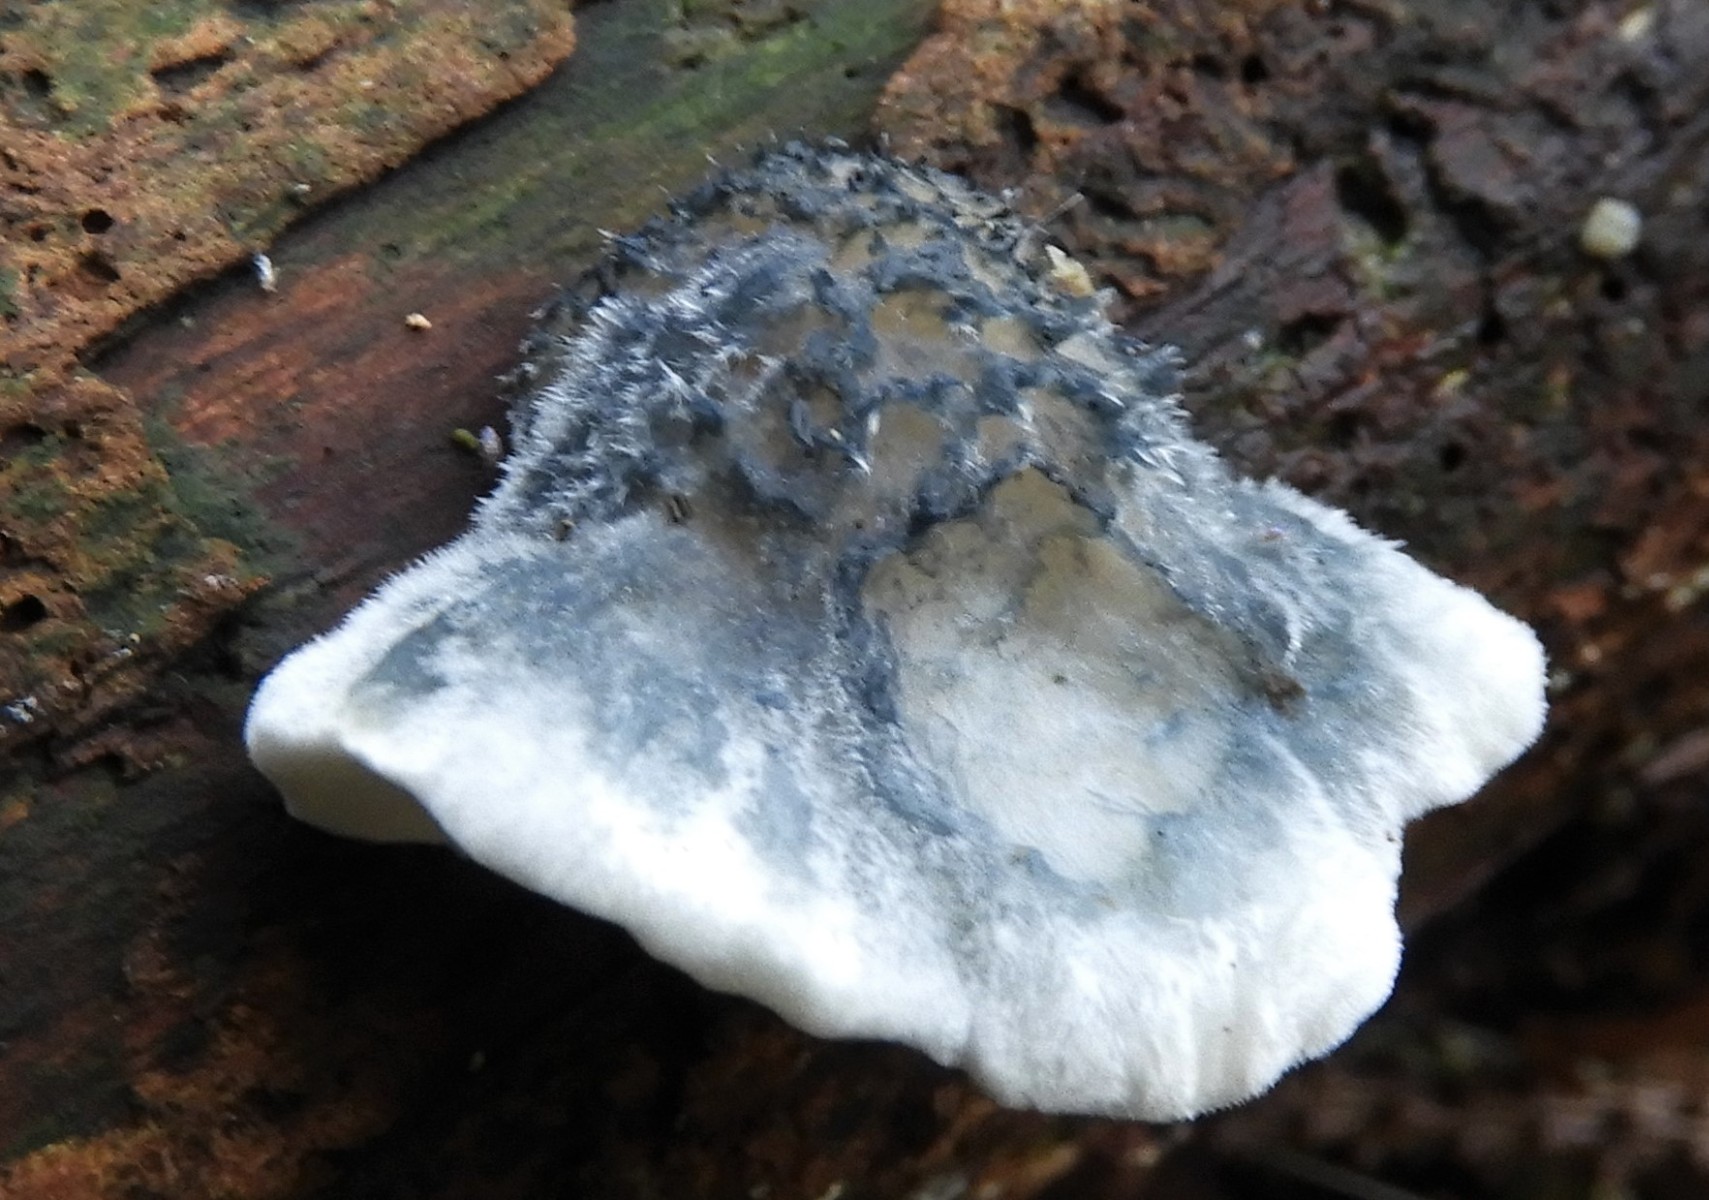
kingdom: Fungi
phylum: Basidiomycota
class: Agaricomycetes
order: Polyporales
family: Polyporaceae
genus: Cyanosporus
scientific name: Cyanosporus caesius
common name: blålig kødporesvamp
